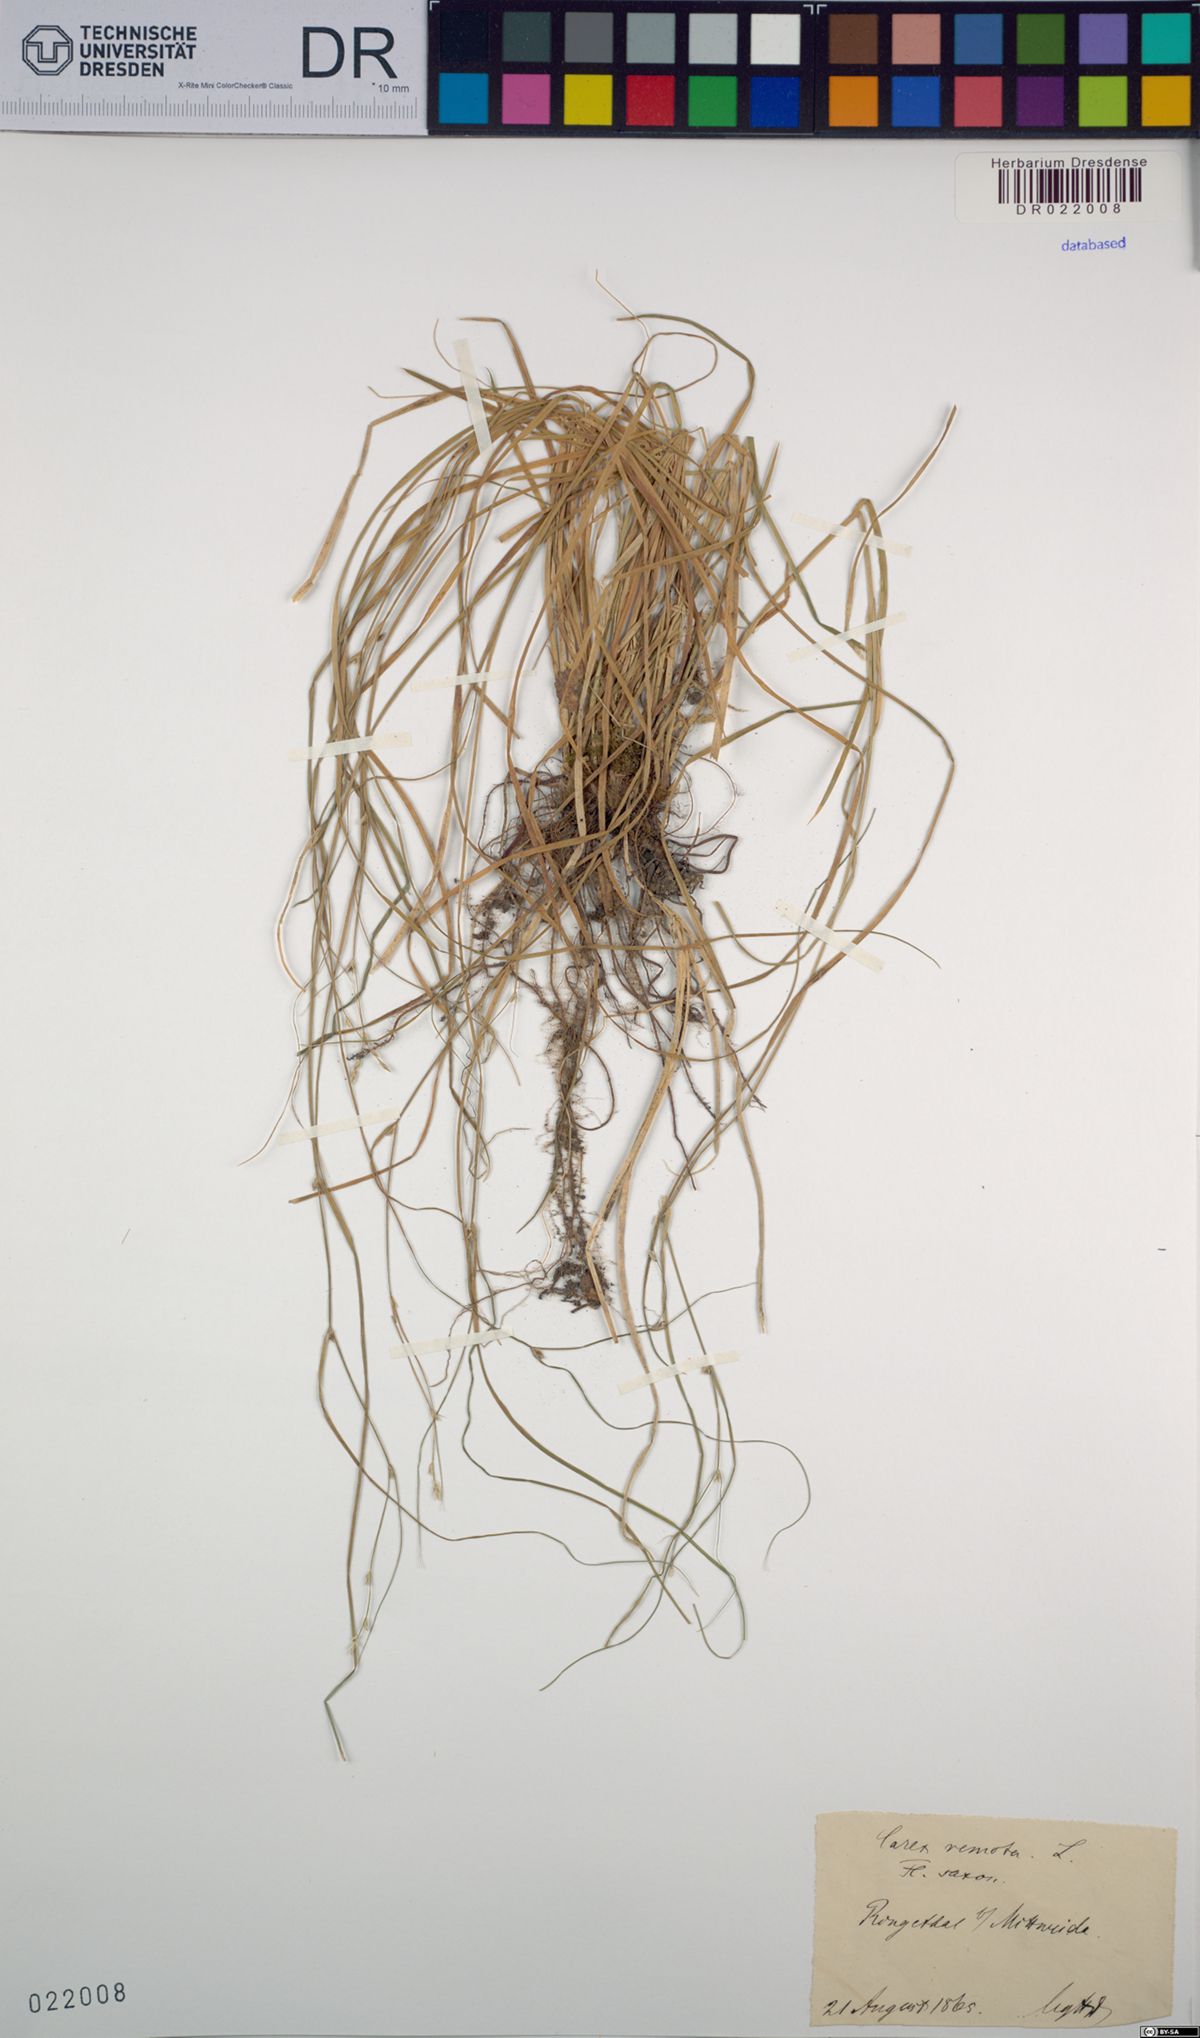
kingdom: Plantae
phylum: Tracheophyta
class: Liliopsida
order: Poales
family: Cyperaceae
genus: Carex
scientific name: Carex remota
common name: Remote sedge
